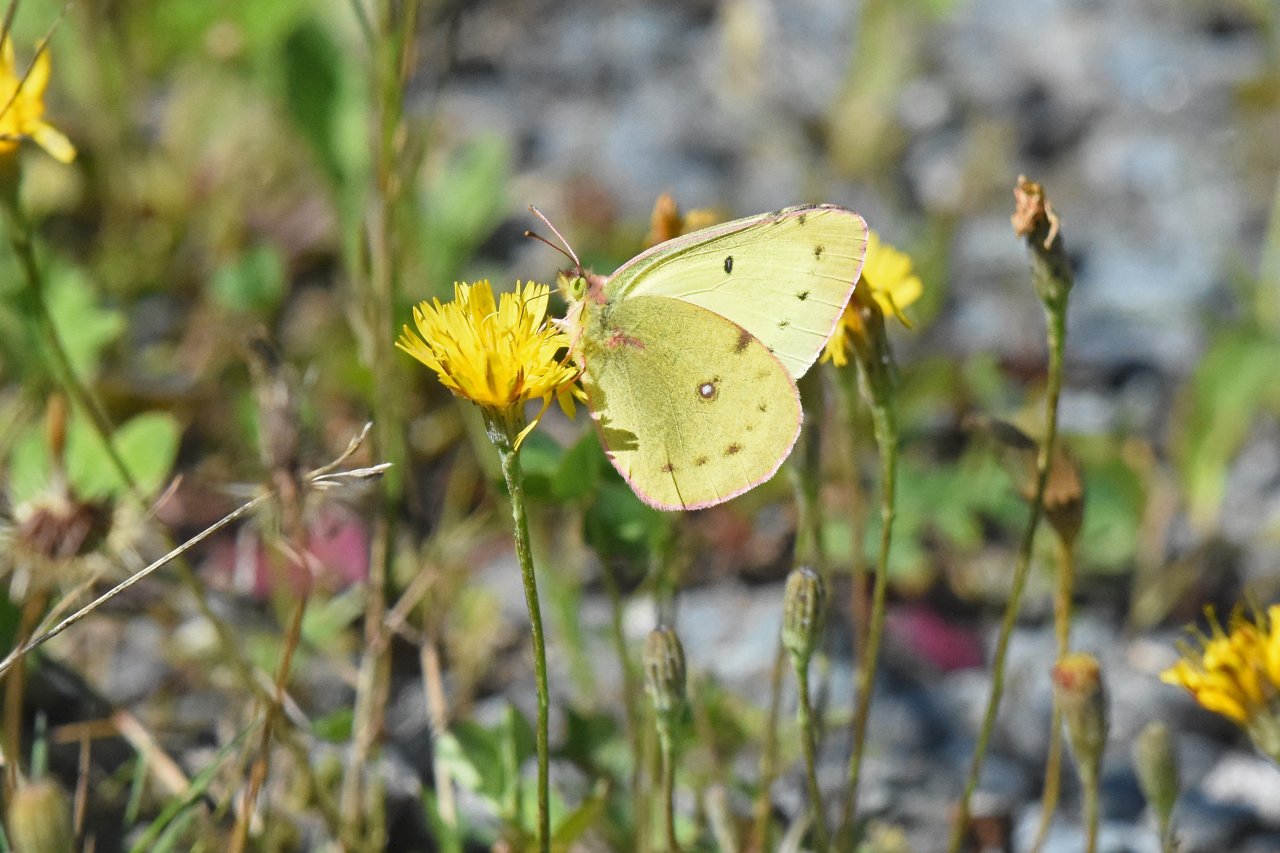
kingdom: Animalia
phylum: Arthropoda
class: Insecta
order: Lepidoptera
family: Pieridae
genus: Colias
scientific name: Colias philodice
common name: Clouded Sulphur
